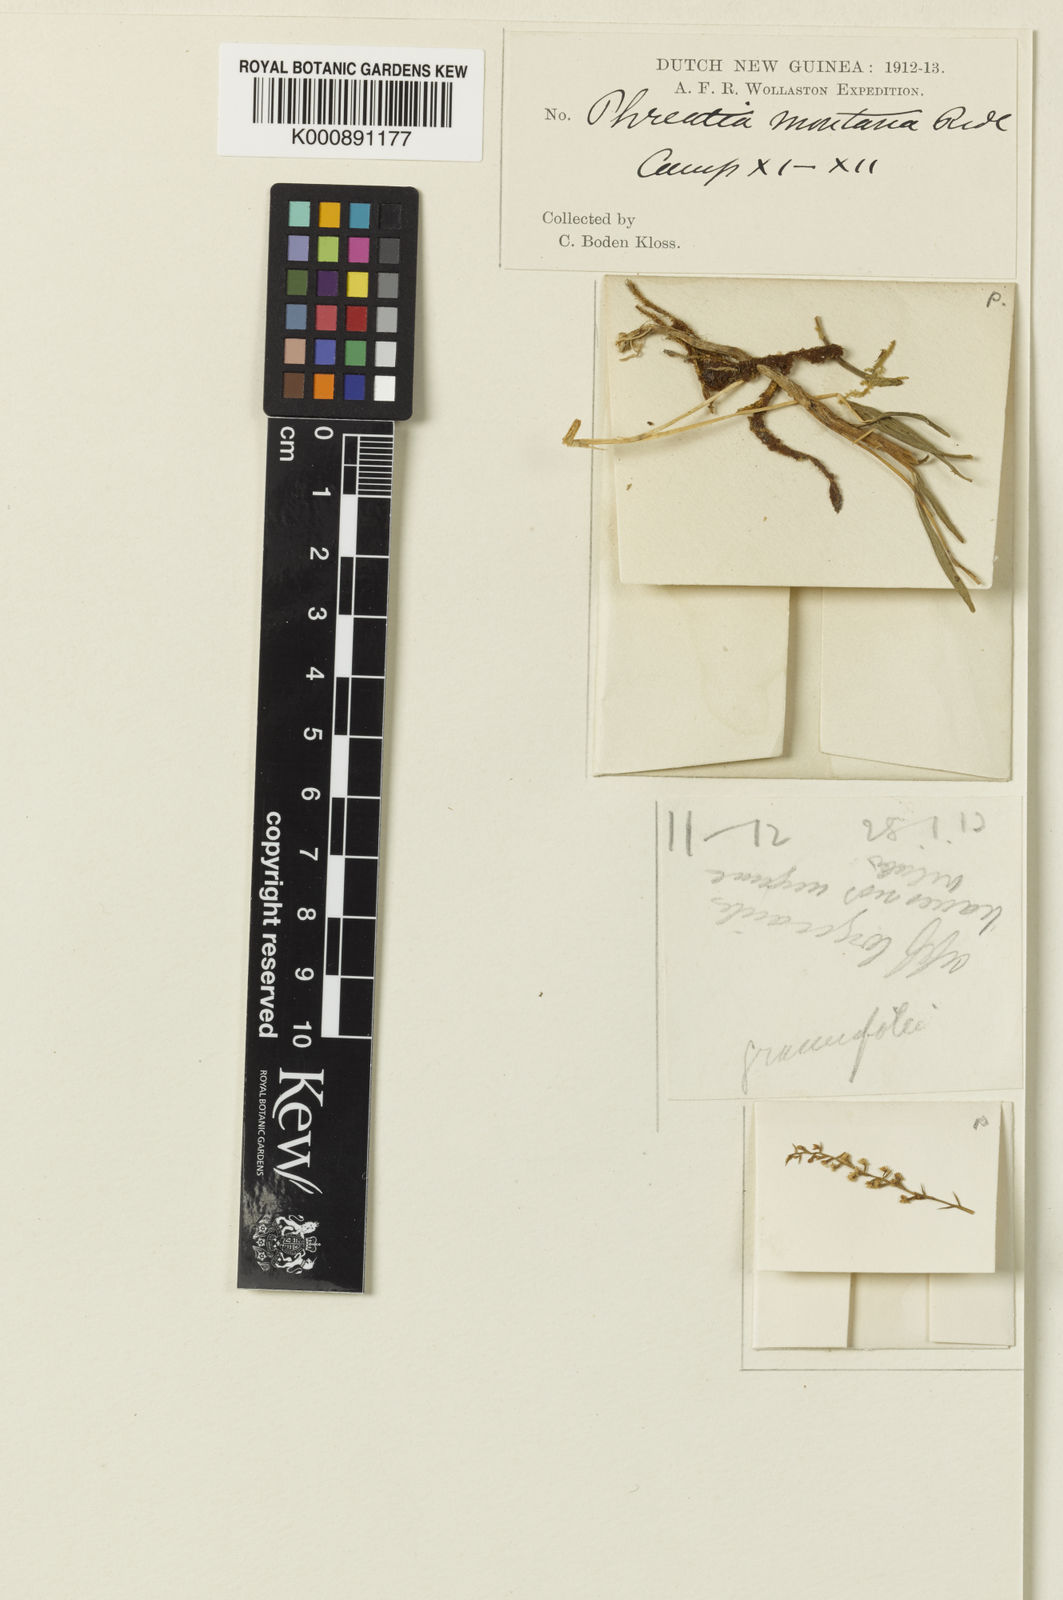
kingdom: Plantae
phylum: Tracheophyta
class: Liliopsida
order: Asparagales
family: Orchidaceae
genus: Phreatia
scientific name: Phreatia montana
